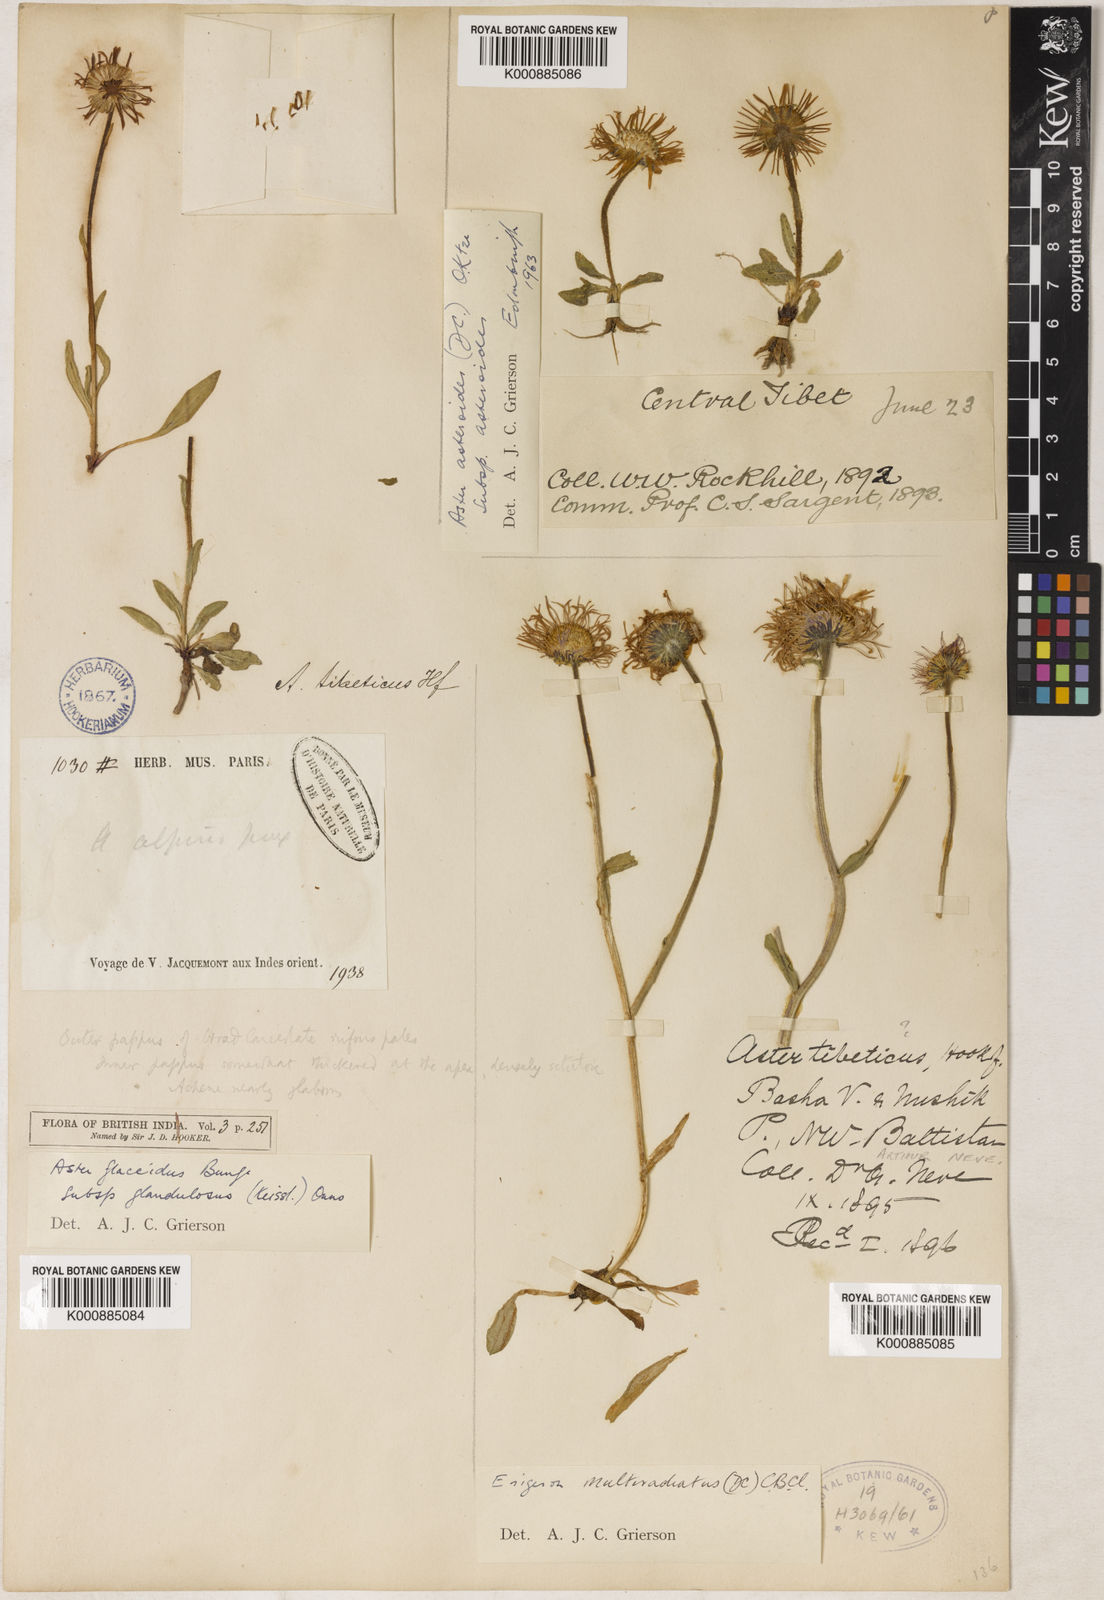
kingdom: Plantae
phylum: Tracheophyta
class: Magnoliopsida
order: Asterales
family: Asteraceae
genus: Erigeron
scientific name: Erigeron
